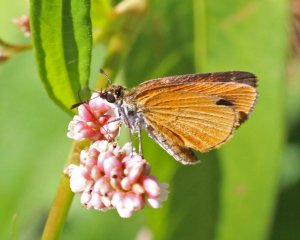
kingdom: Animalia
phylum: Arthropoda
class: Insecta
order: Lepidoptera
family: Hesperiidae
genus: Ancyloxypha
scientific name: Ancyloxypha numitor
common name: Least Skipper
